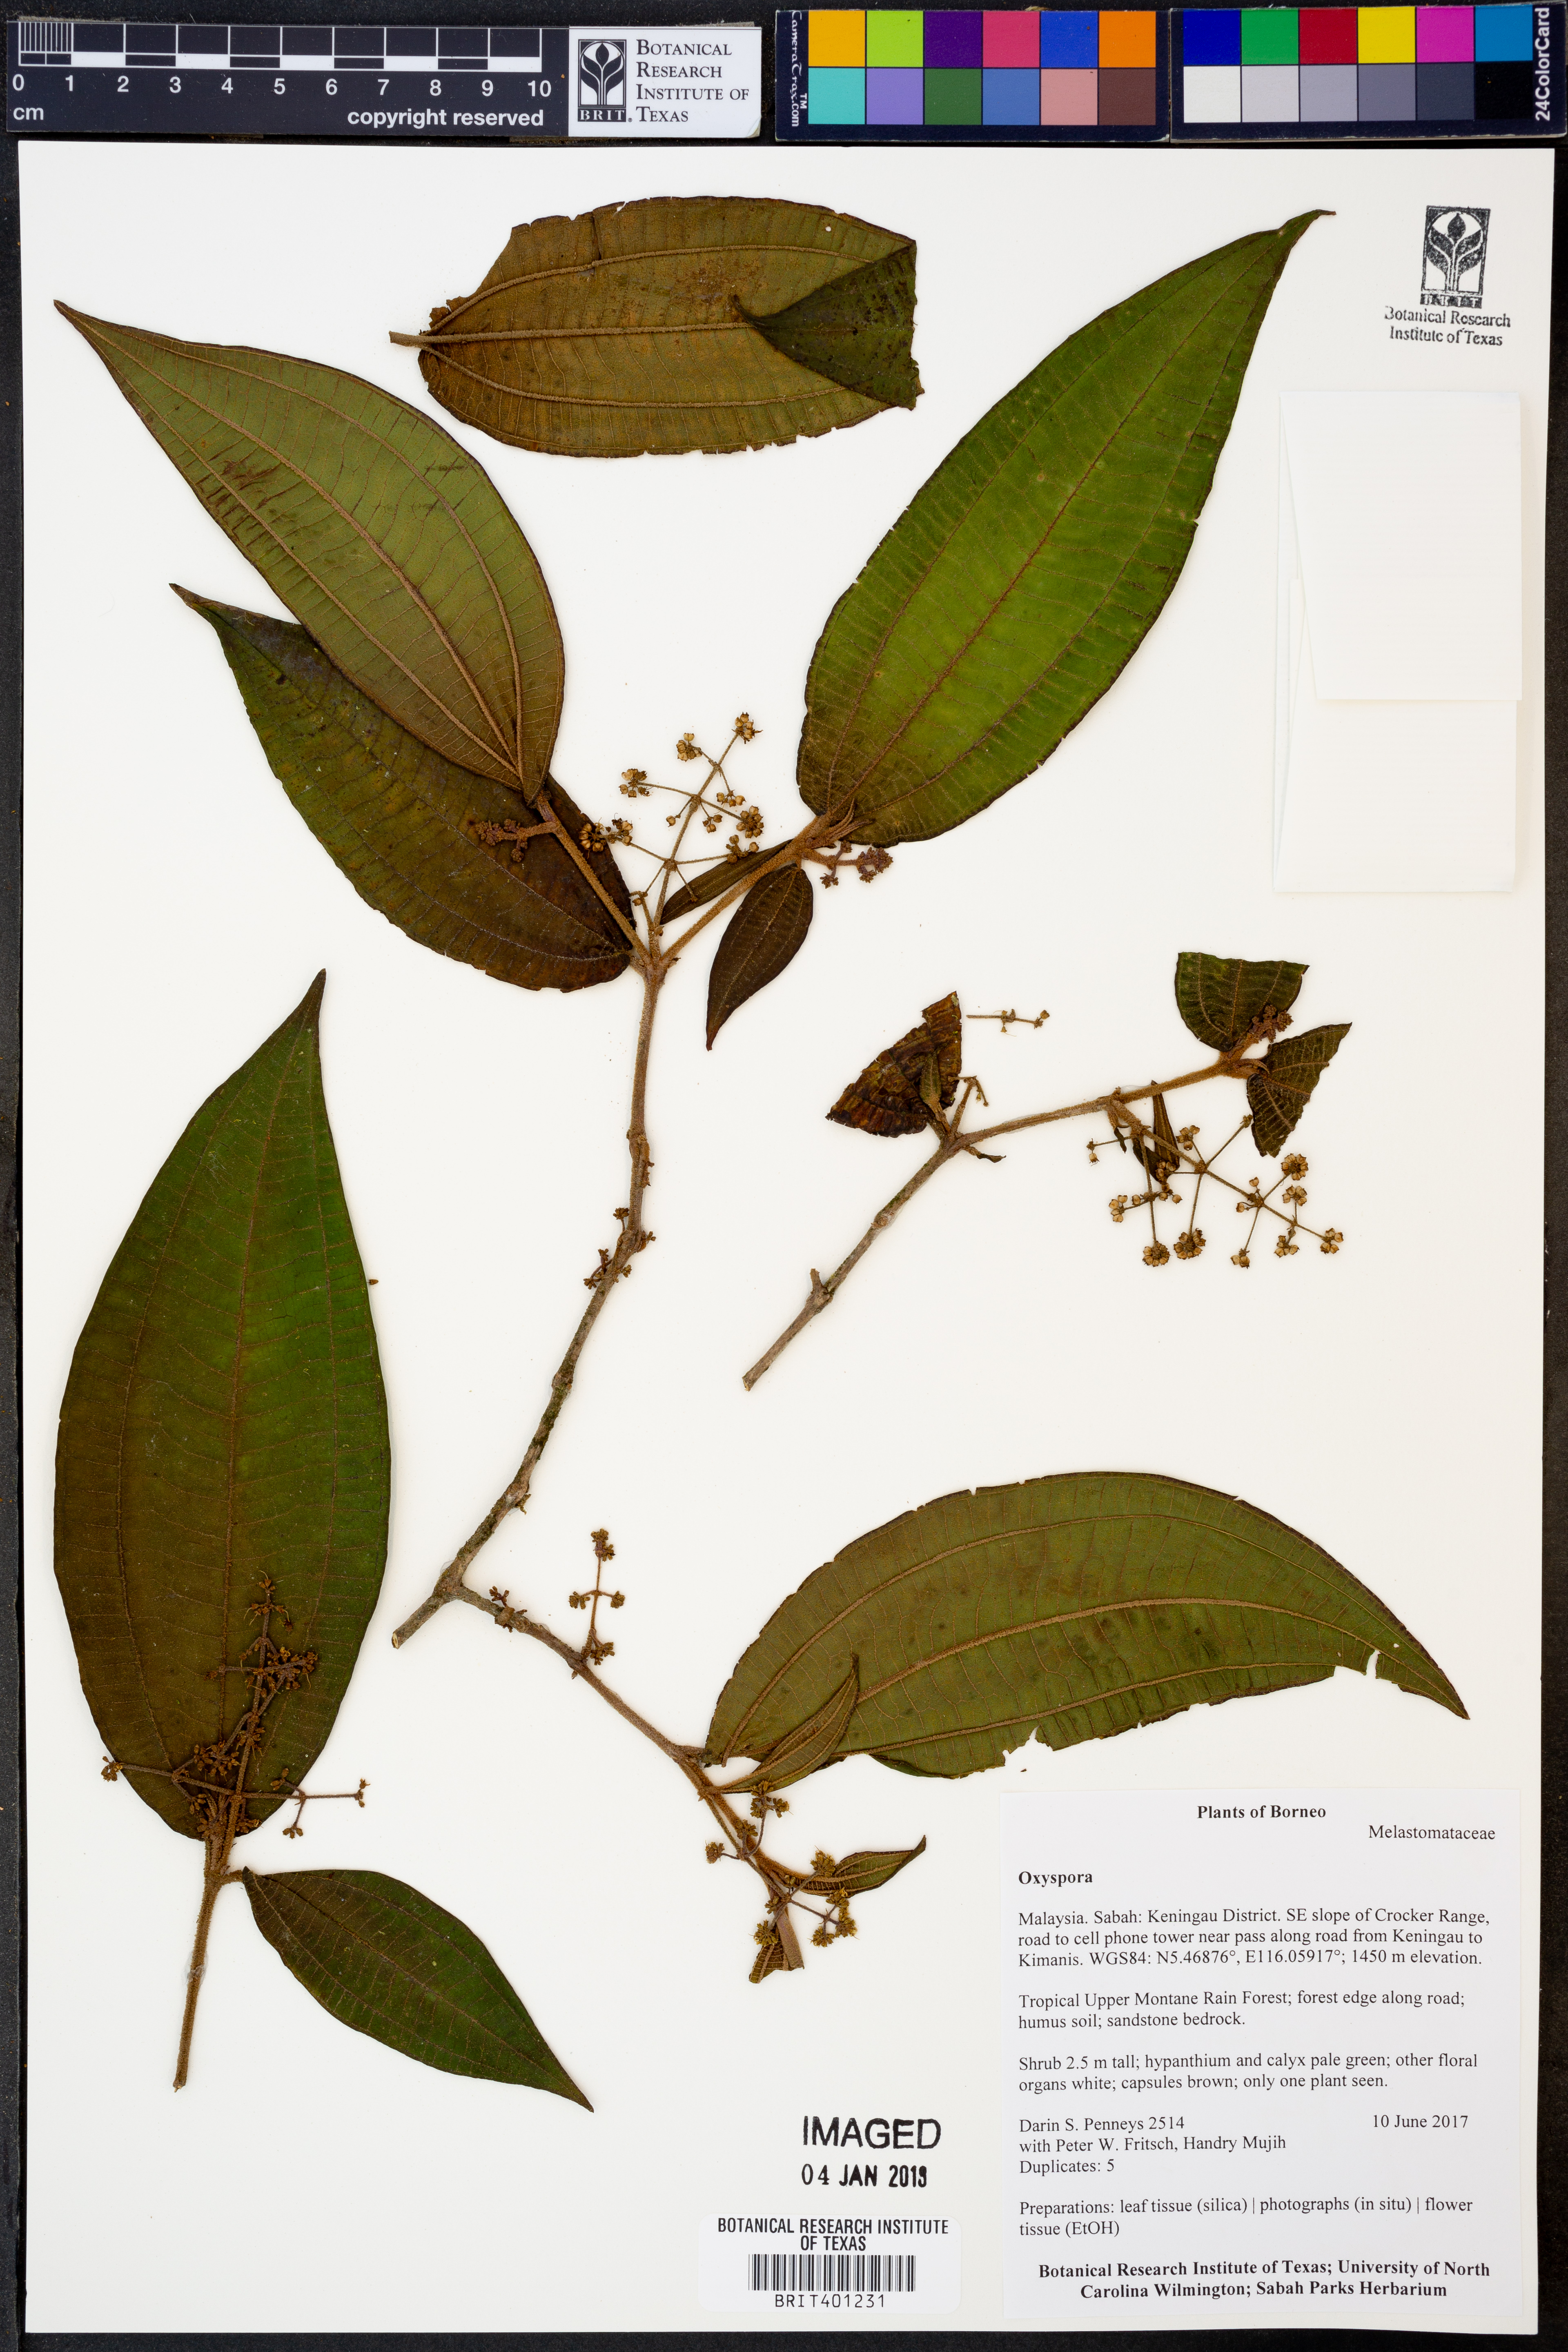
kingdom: Plantae
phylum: Tracheophyta
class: Magnoliopsida
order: Myrtales
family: Melastomataceae
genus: Oxyspora
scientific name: Oxyspora
